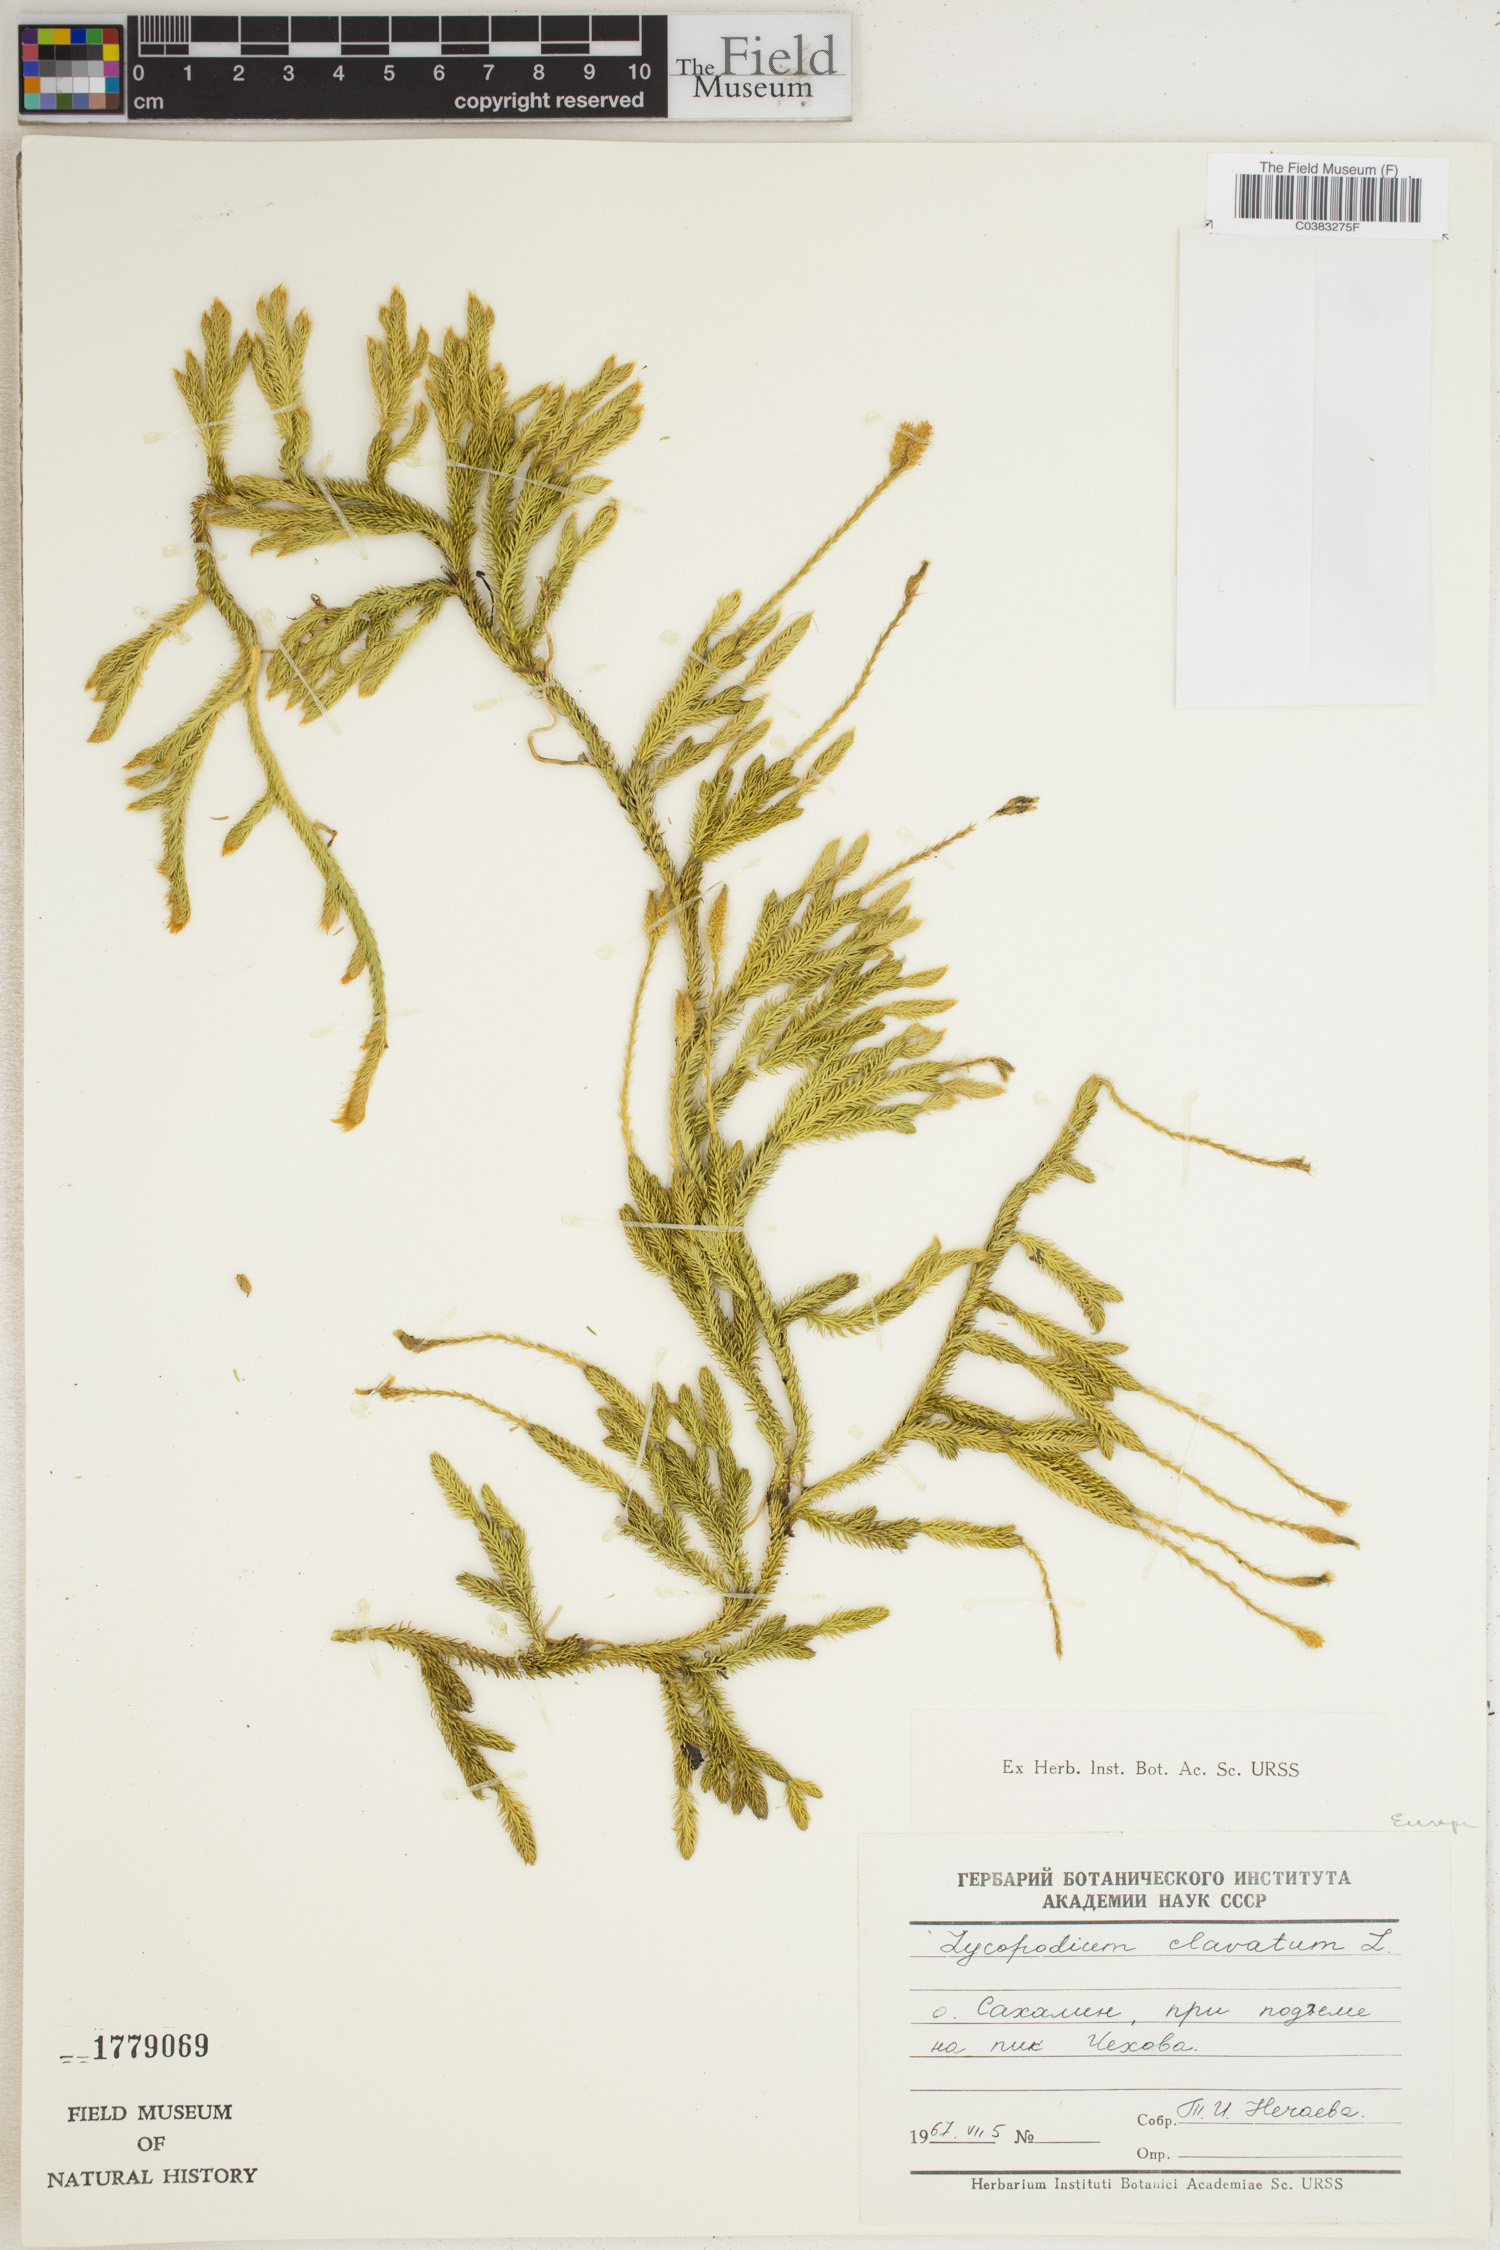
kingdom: Plantae
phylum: Tracheophyta
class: Lycopodiopsida
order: Lycopodiales
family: Lycopodiaceae
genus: Lycopodium
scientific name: Lycopodium clavatum
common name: Stag's-horn clubmoss
